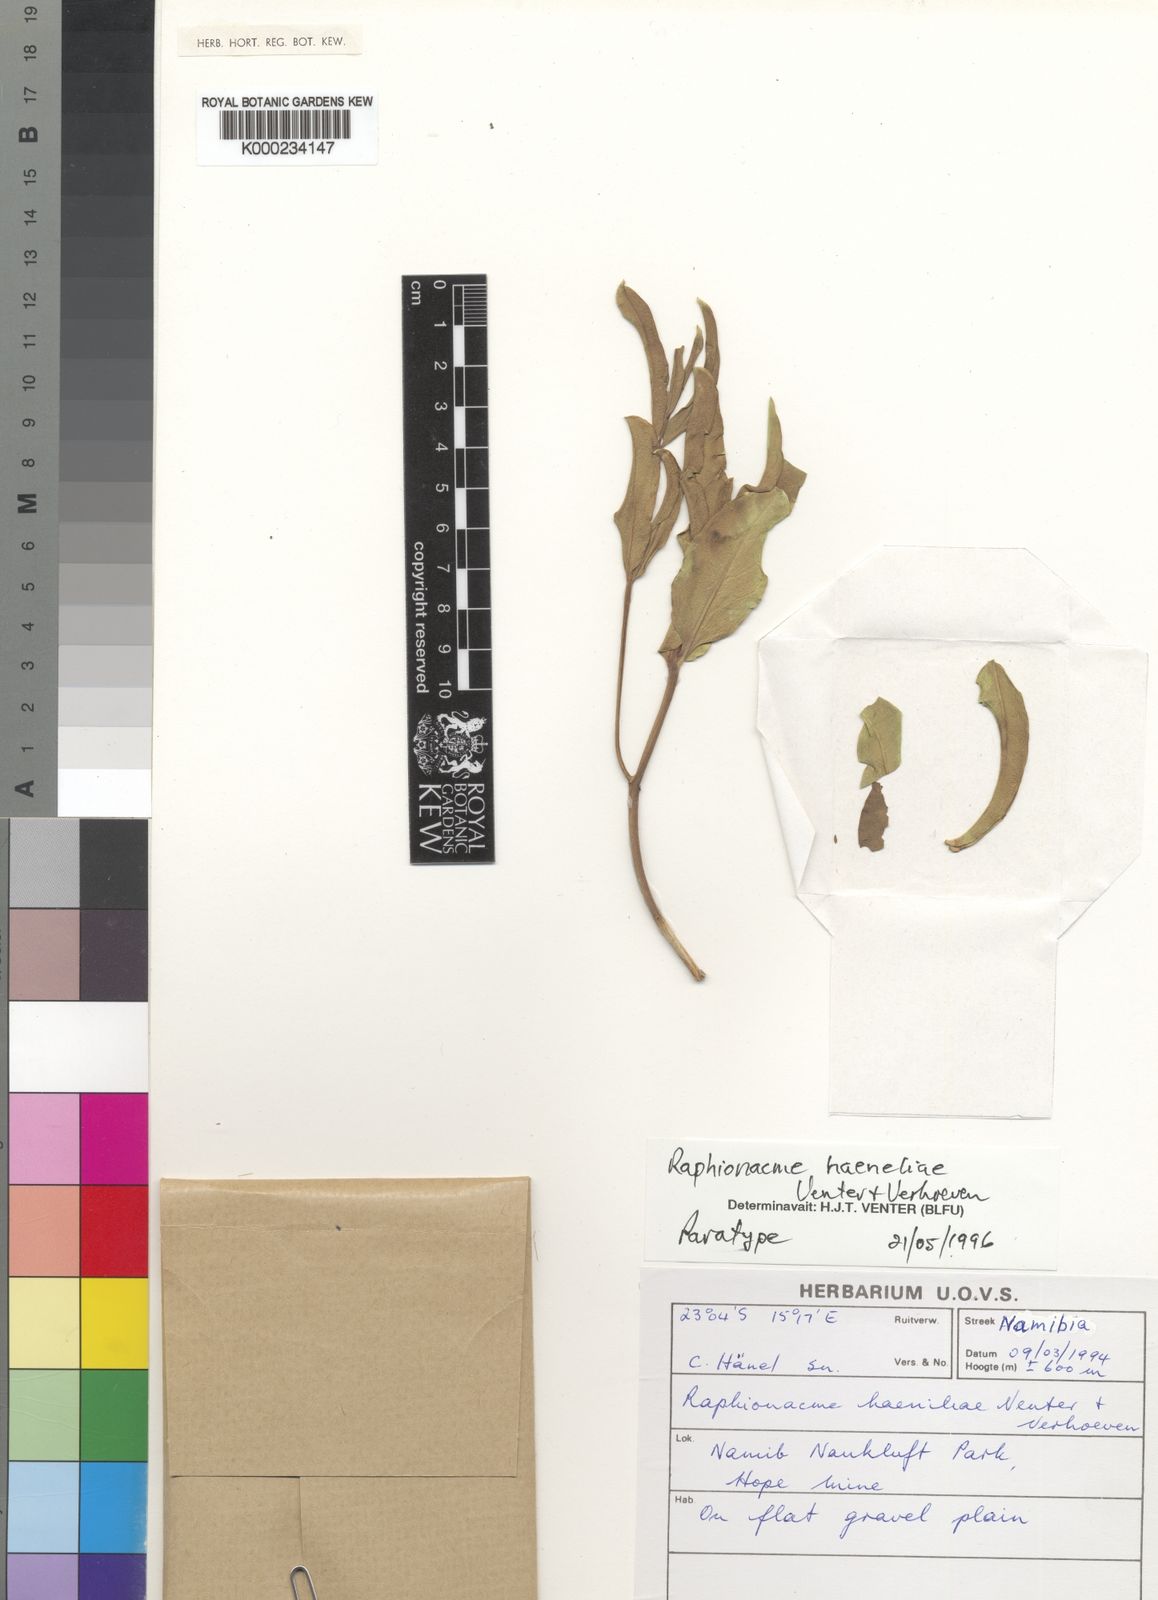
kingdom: Plantae
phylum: Tracheophyta
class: Magnoliopsida
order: Gentianales
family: Apocynaceae
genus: Raphionacme
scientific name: Raphionacme haeneliae
